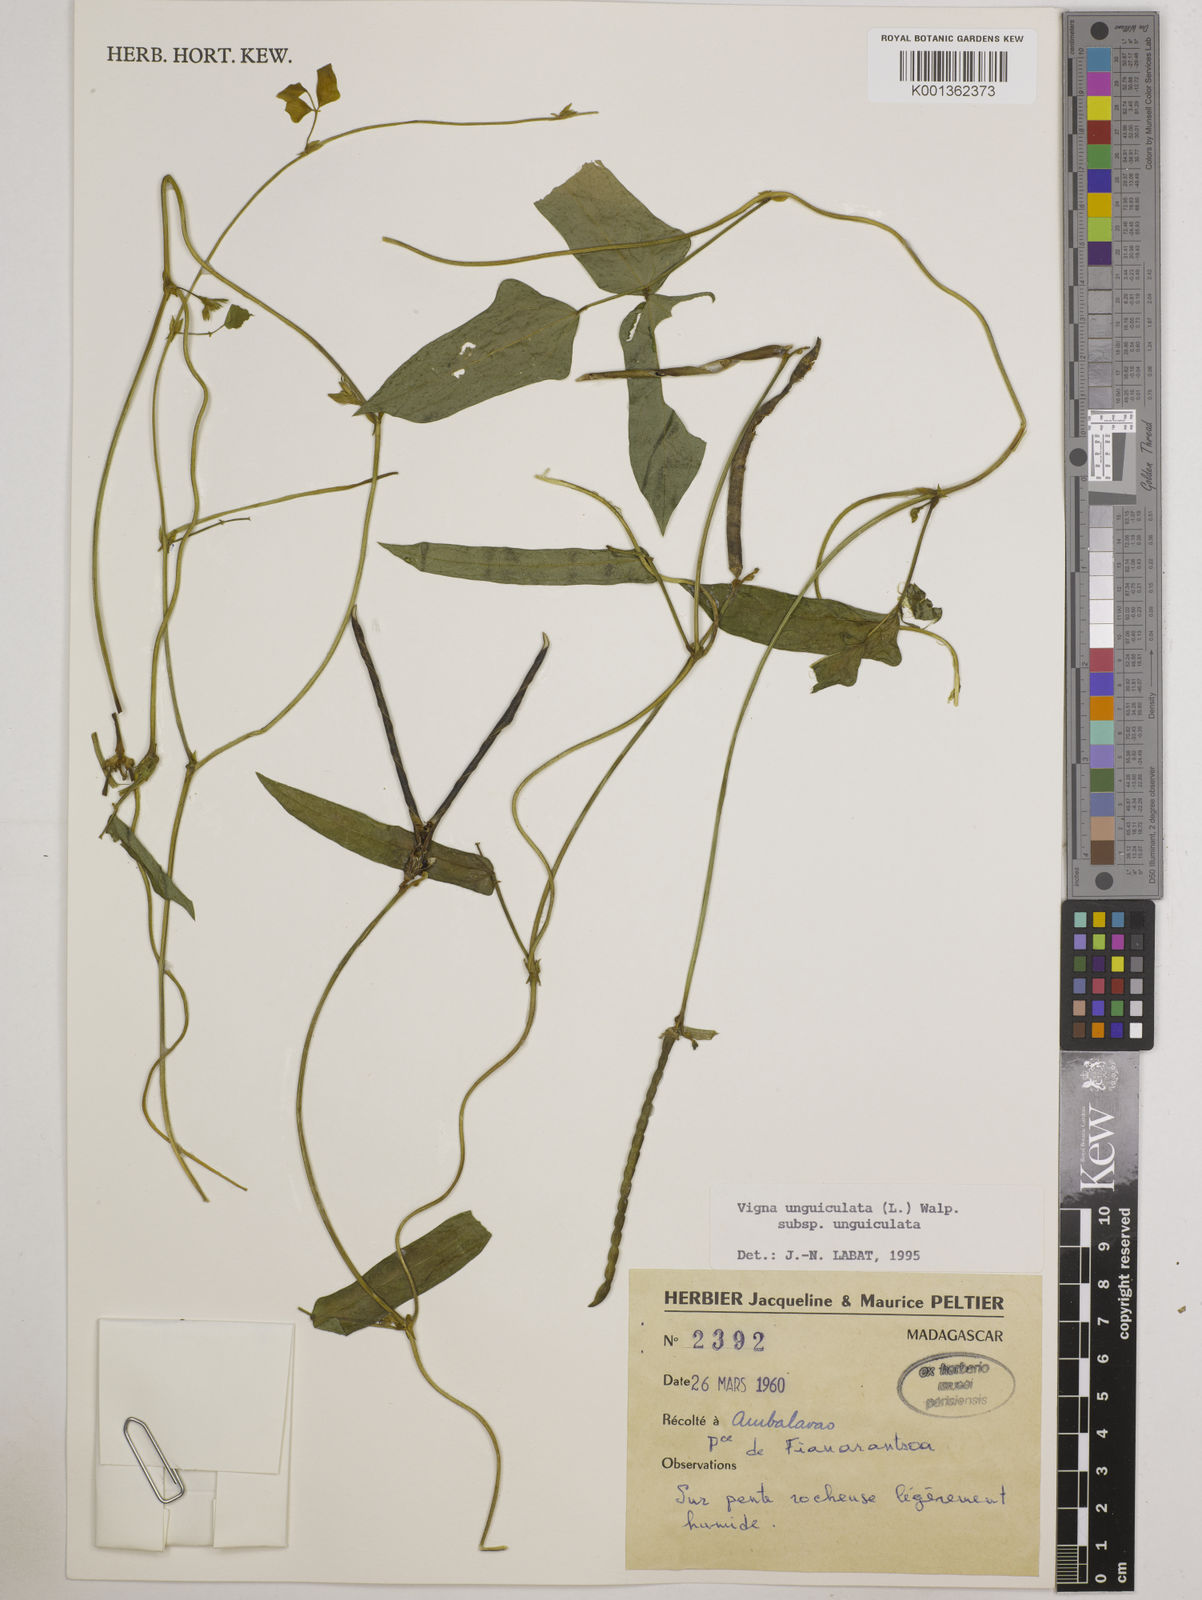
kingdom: Plantae
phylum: Tracheophyta
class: Magnoliopsida
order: Fabales
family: Fabaceae
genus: Vigna
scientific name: Vigna
